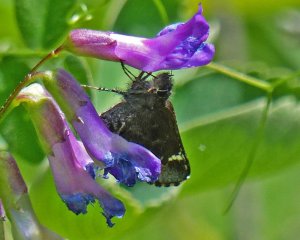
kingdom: Animalia
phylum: Arthropoda
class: Insecta
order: Lepidoptera
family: Hesperiidae
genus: Mastor
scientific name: Mastor vialis
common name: Common Roadside-Skipper
